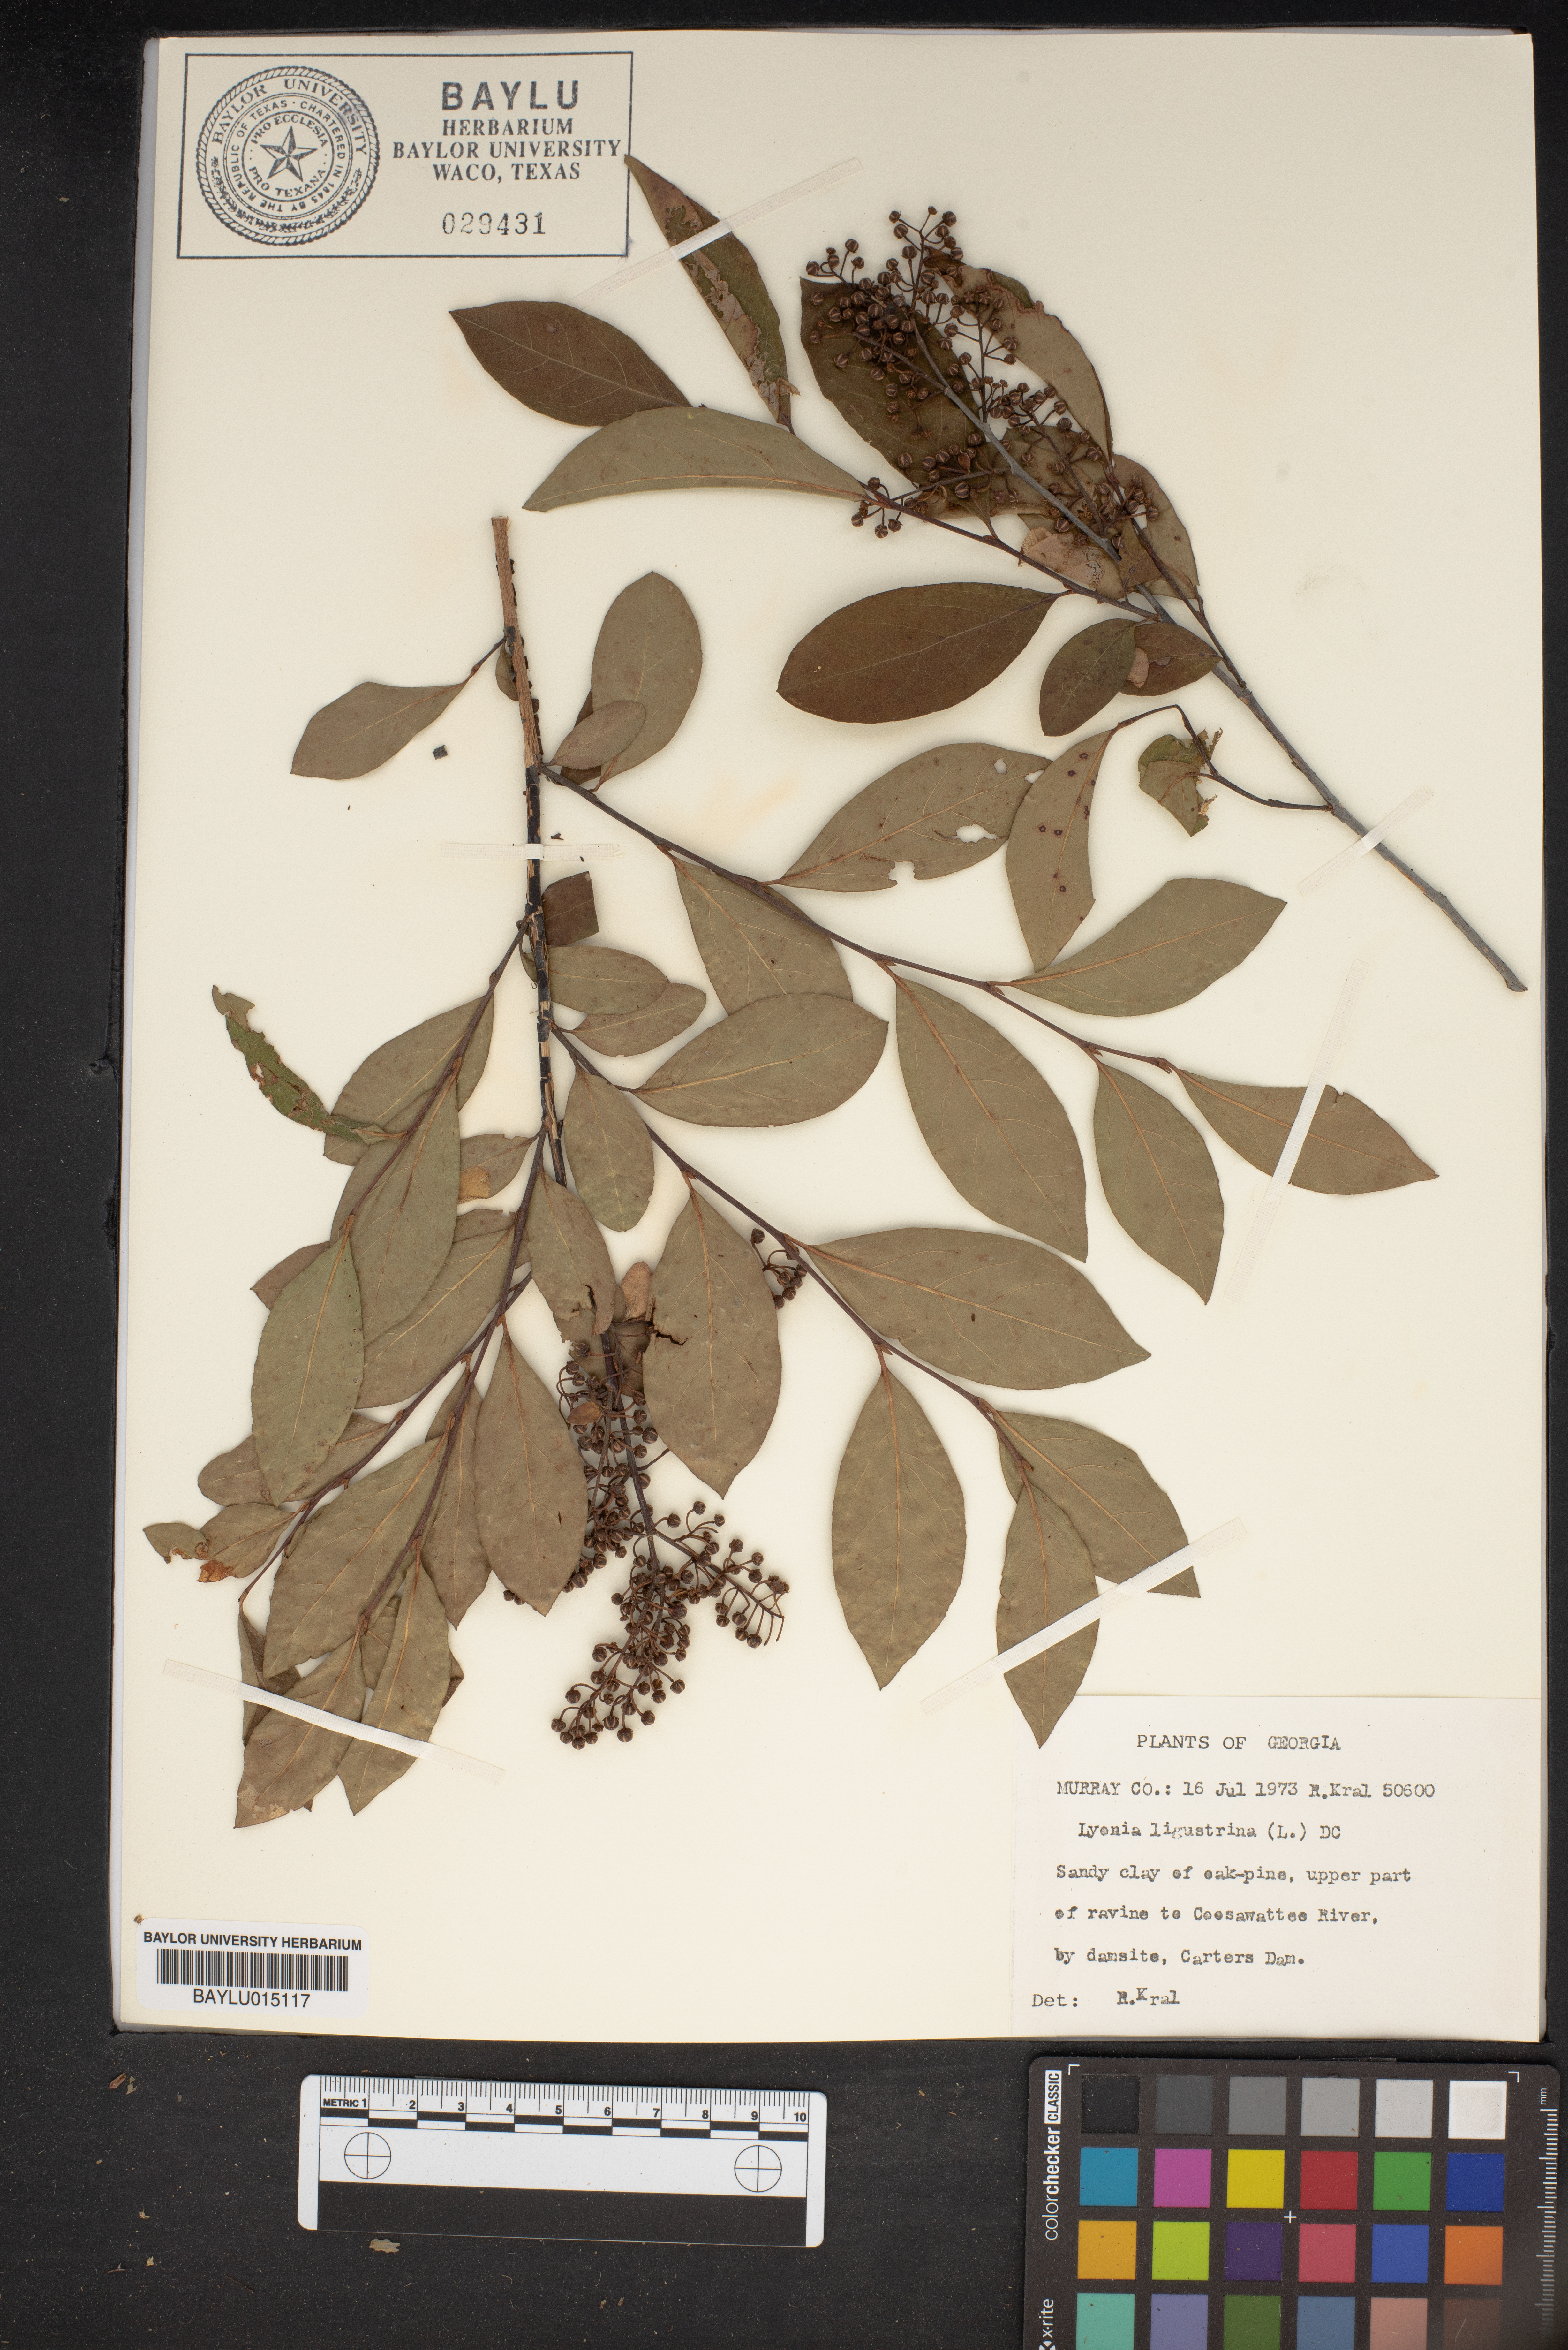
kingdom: Plantae
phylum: Tracheophyta
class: Magnoliopsida
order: Ericales
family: Ericaceae
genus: Lyonia
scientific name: Lyonia ligustrina
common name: Maleberry
